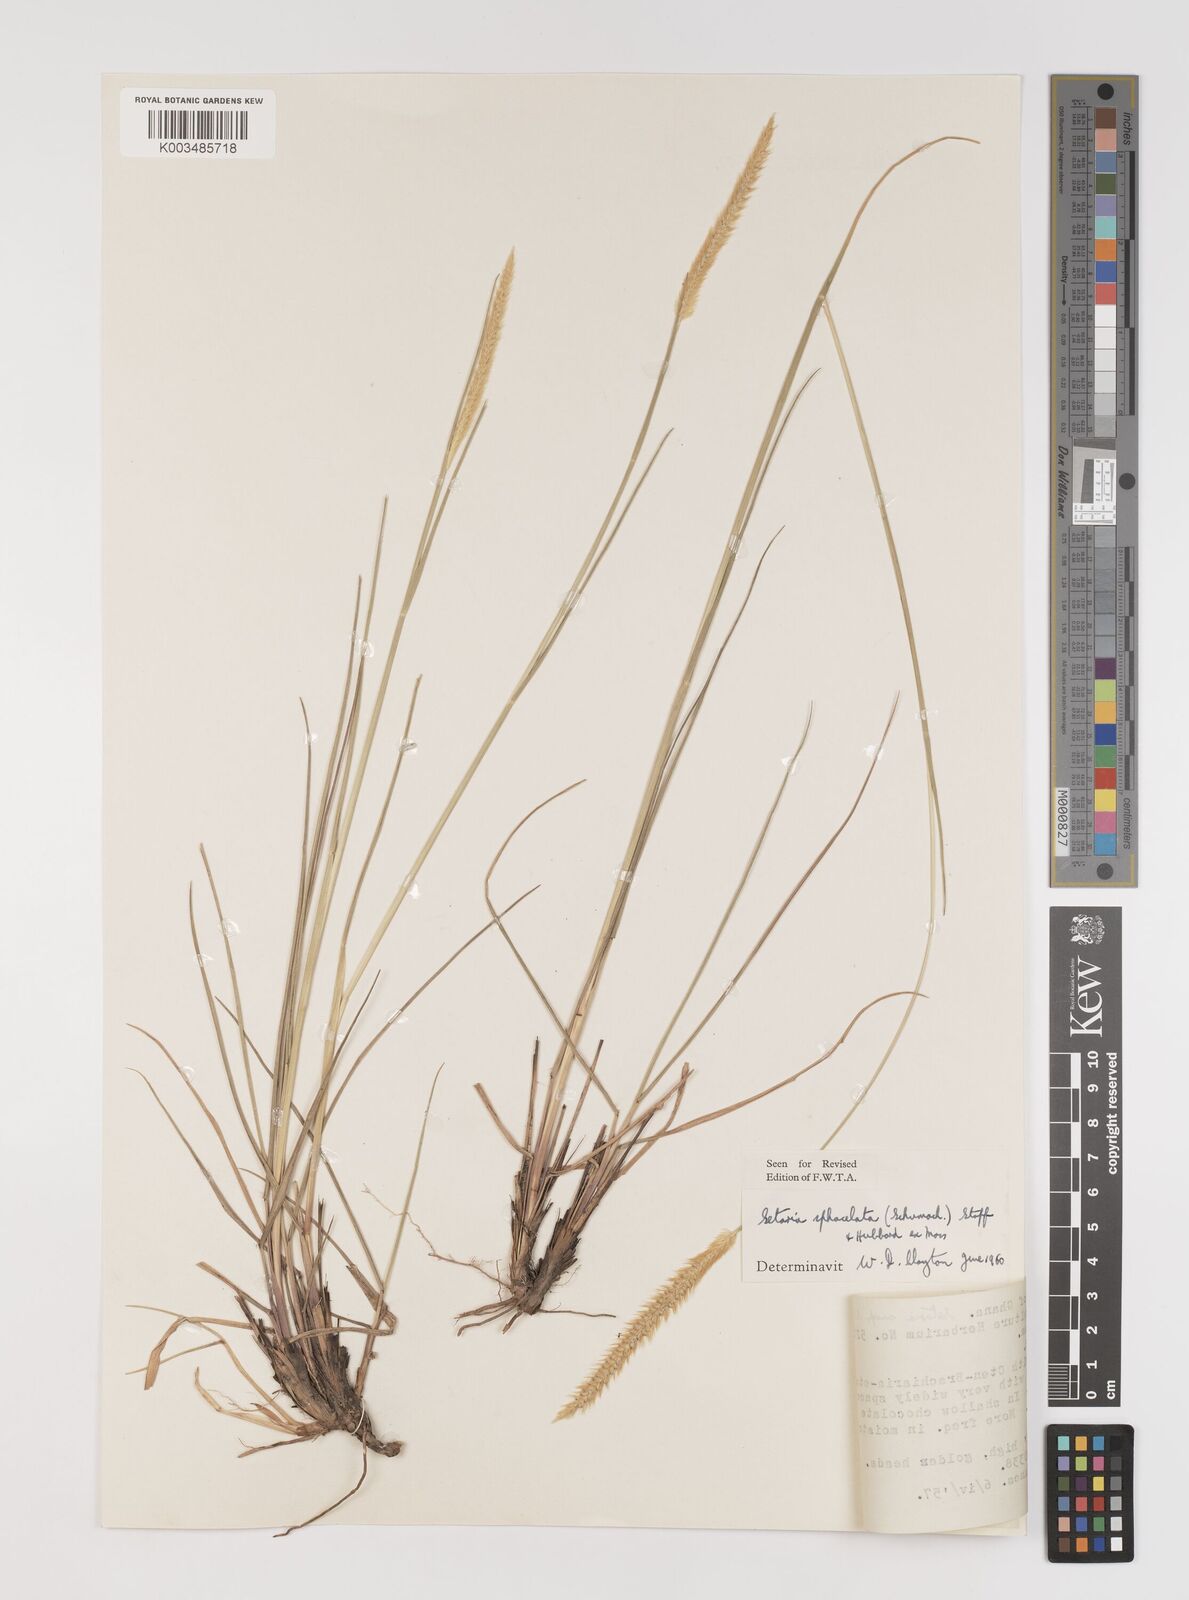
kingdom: Plantae
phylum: Tracheophyta
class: Liliopsida
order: Poales
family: Poaceae
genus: Setaria
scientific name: Setaria sphacelata
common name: African bristlegrass
